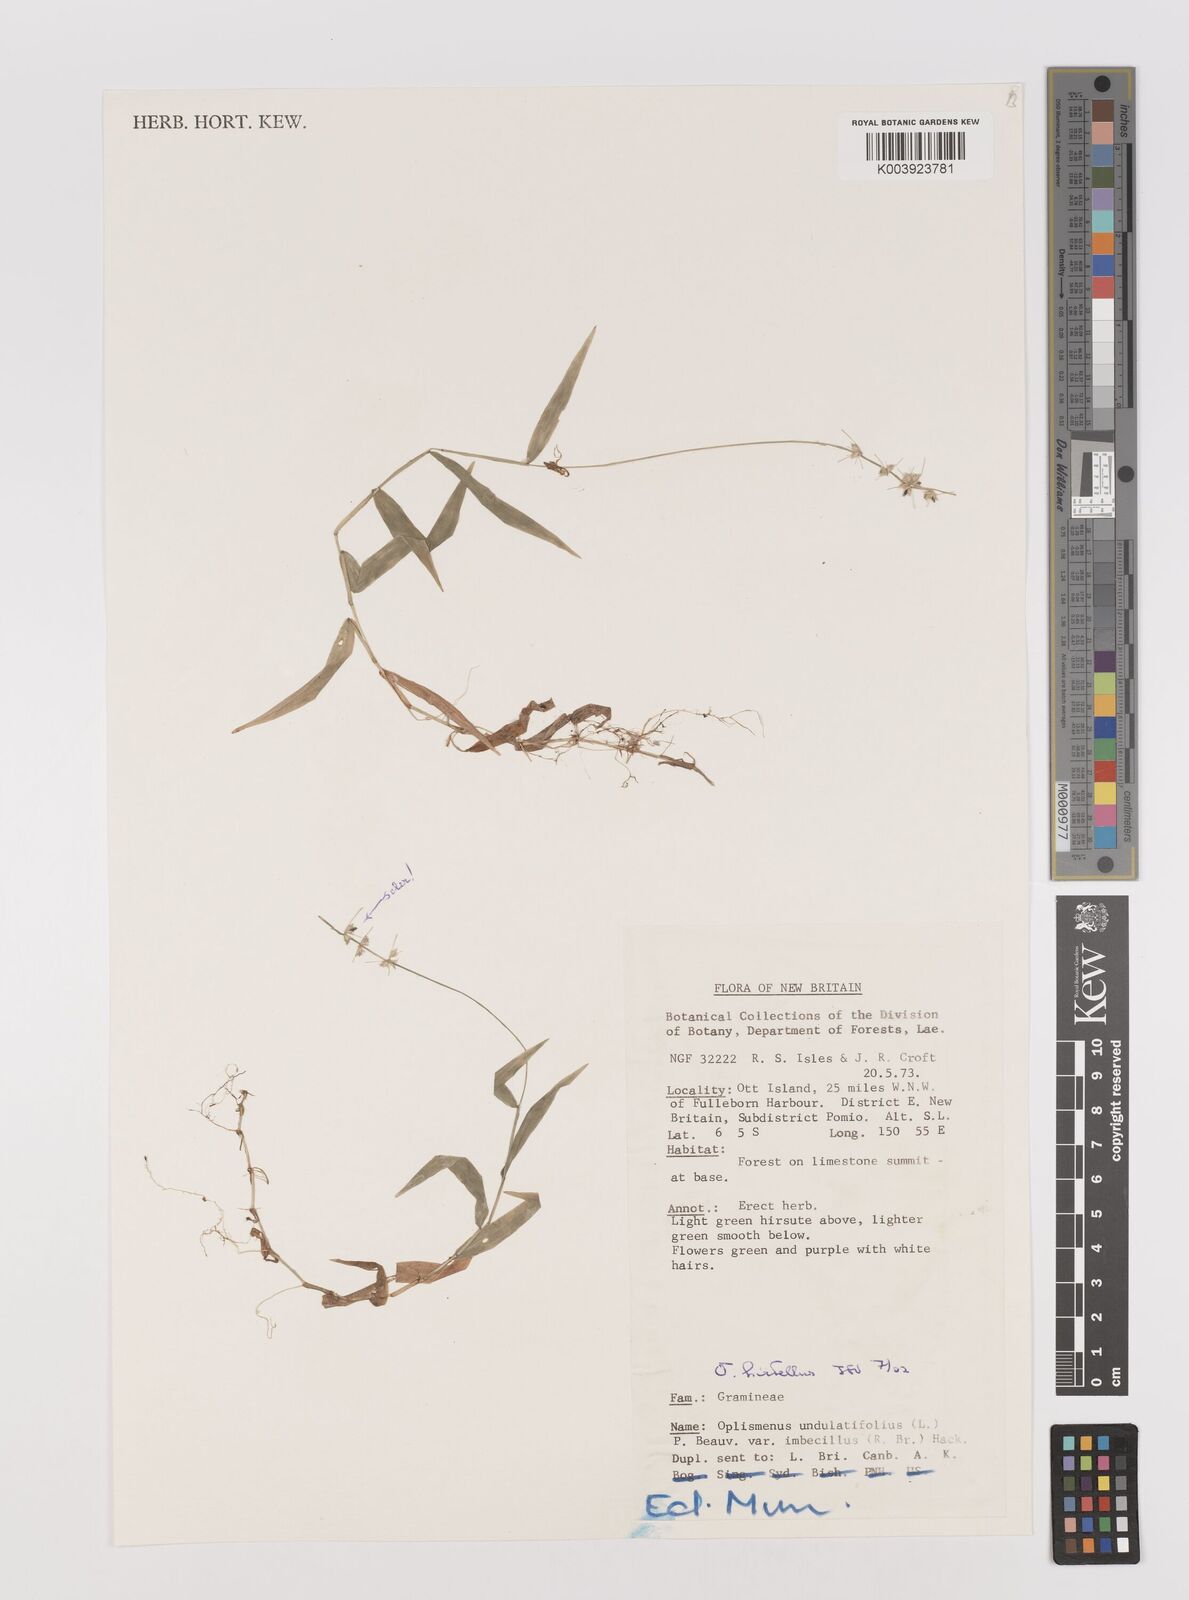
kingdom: Plantae
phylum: Tracheophyta
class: Liliopsida
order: Poales
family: Poaceae
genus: Oplismenus
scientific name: Oplismenus hirtellus
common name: Basketgrass
